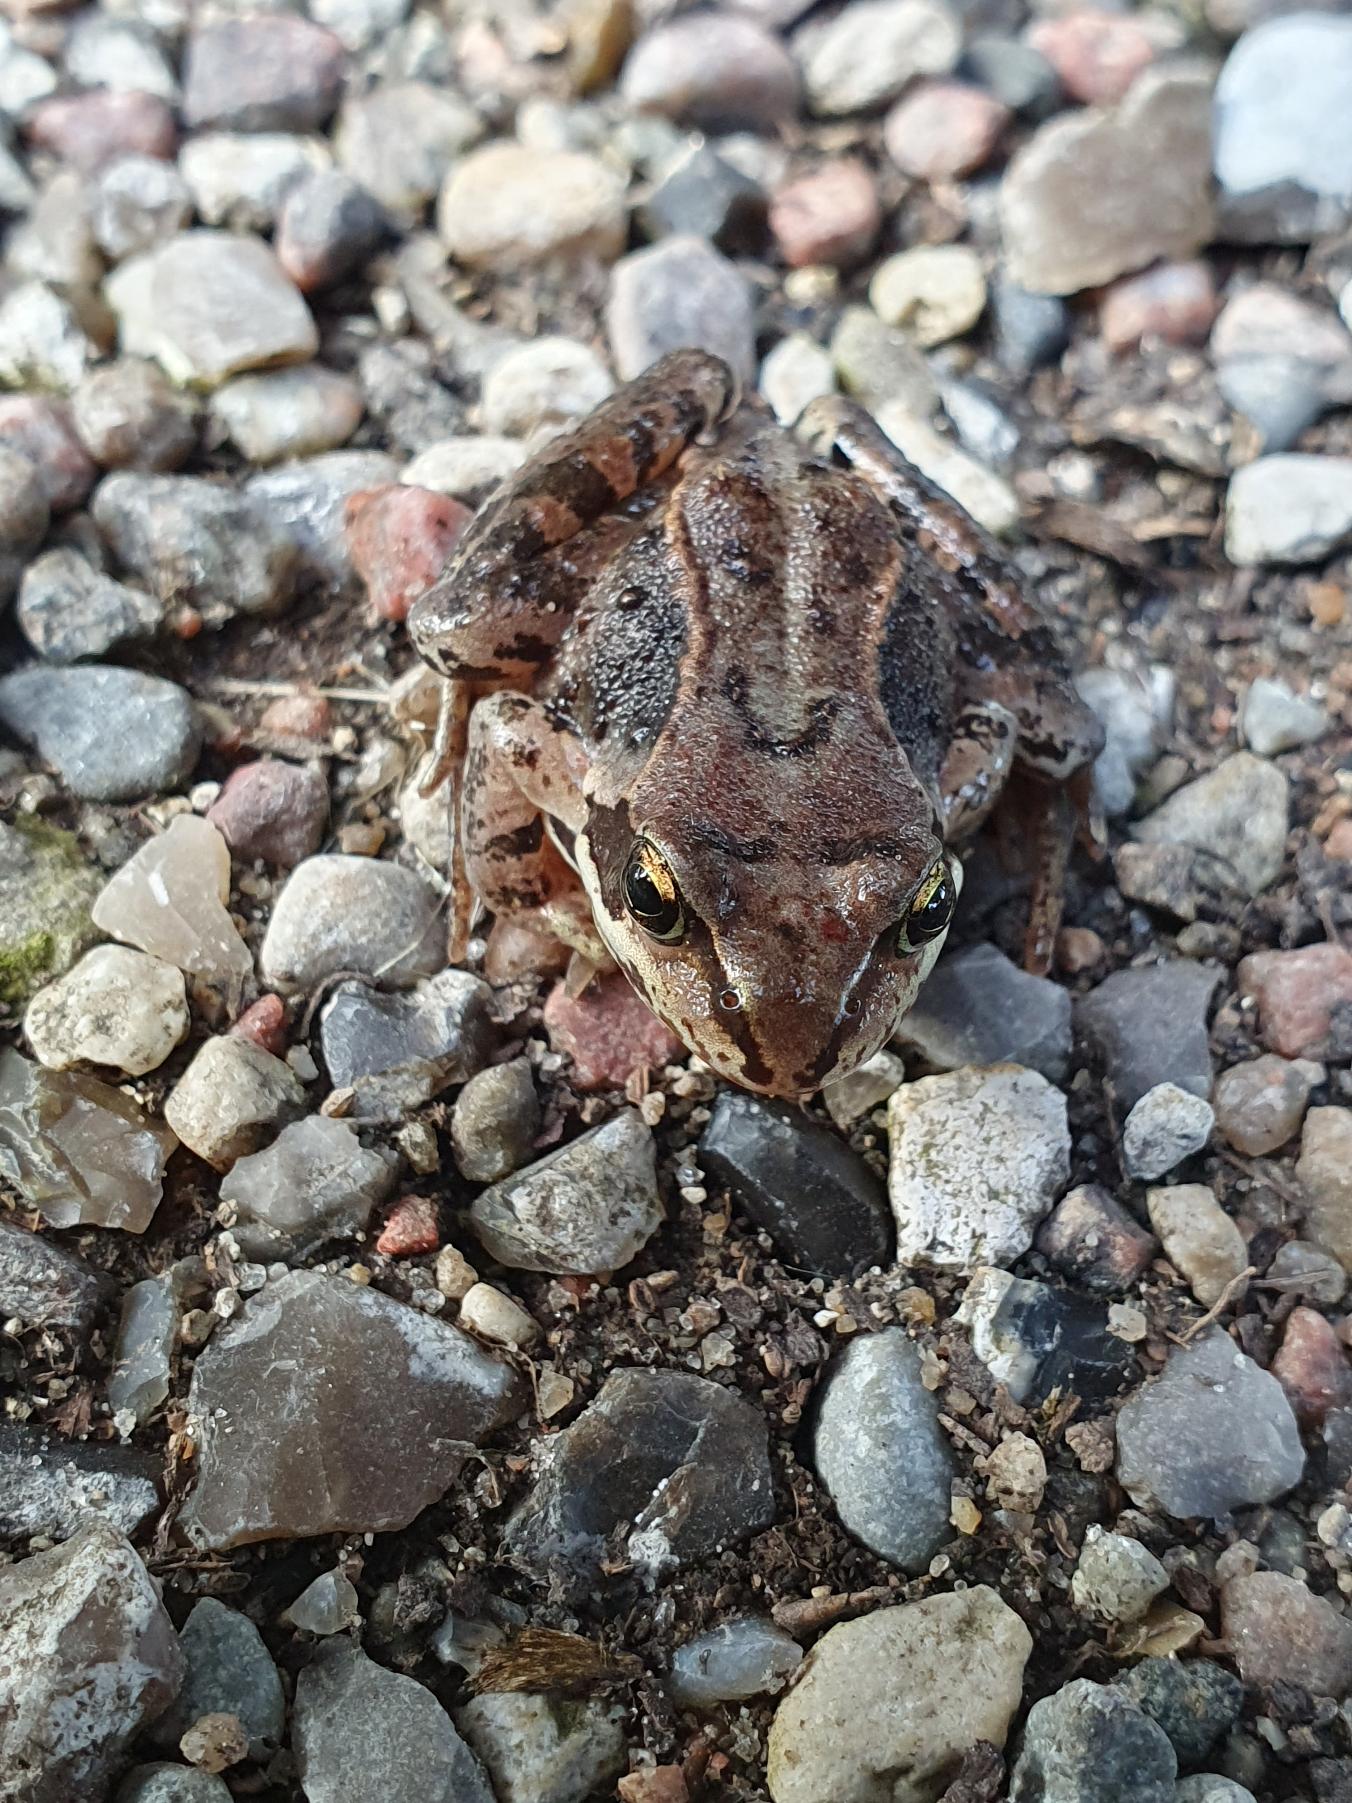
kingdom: Animalia
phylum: Chordata
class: Amphibia
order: Anura
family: Ranidae
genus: Rana
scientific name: Rana temporaria
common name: Butsnudet frø
